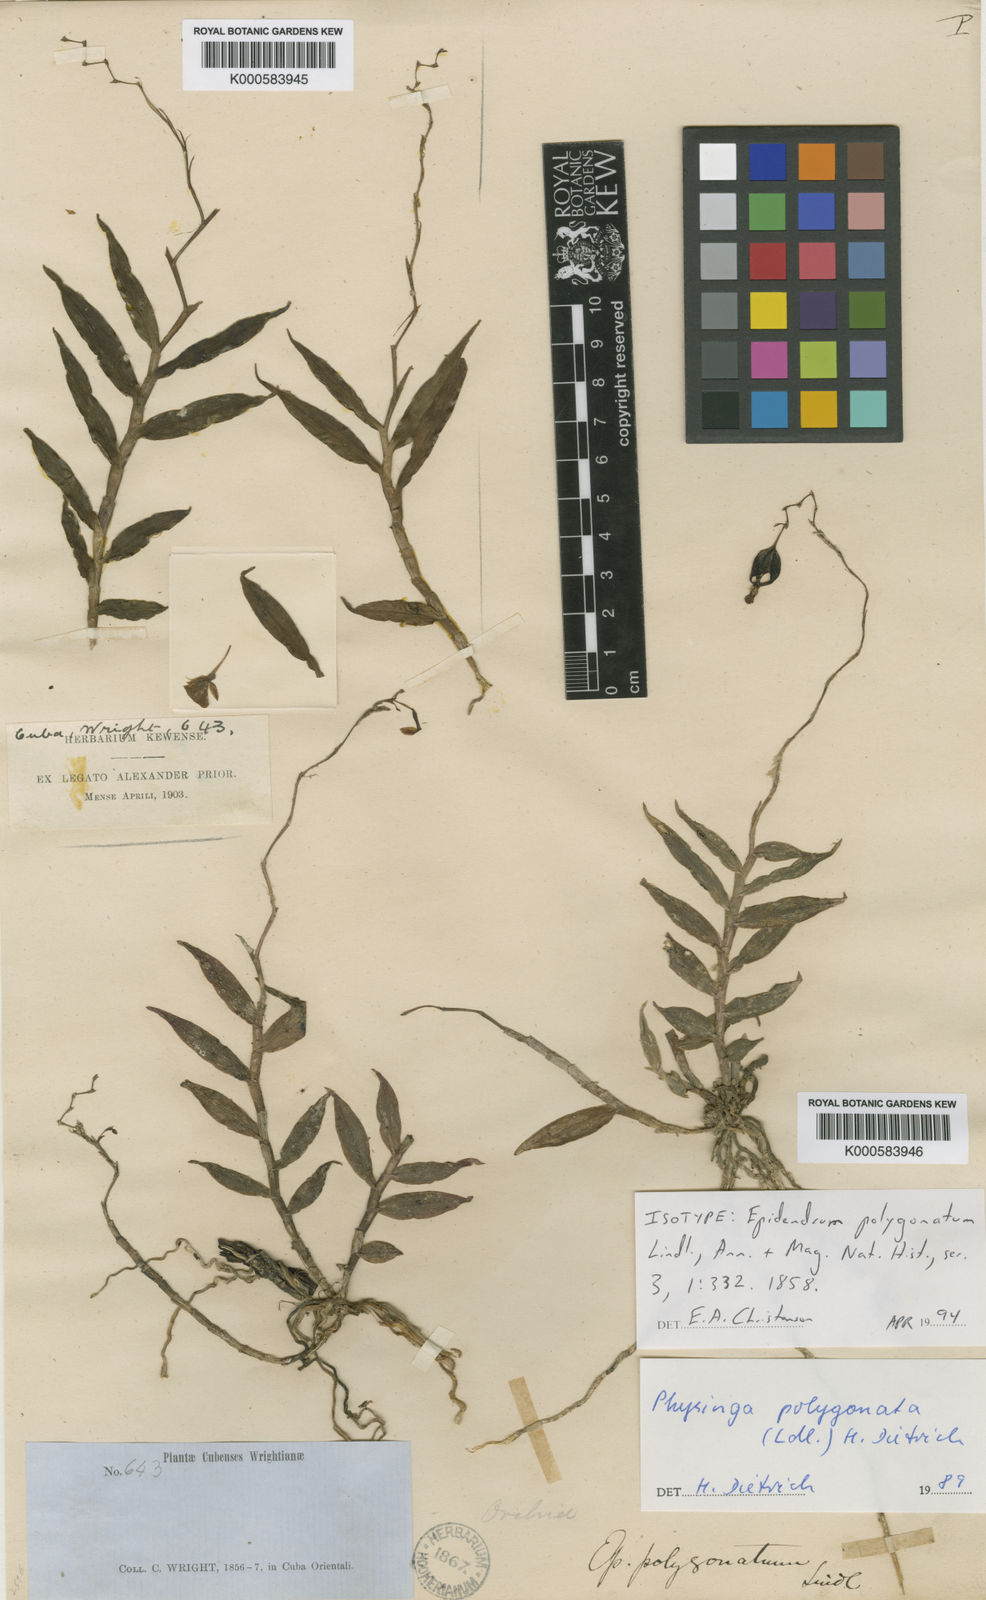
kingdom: Plantae
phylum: Tracheophyta
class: Liliopsida
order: Asparagales
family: Orchidaceae
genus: Epidendrum
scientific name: Epidendrum polygonatum
